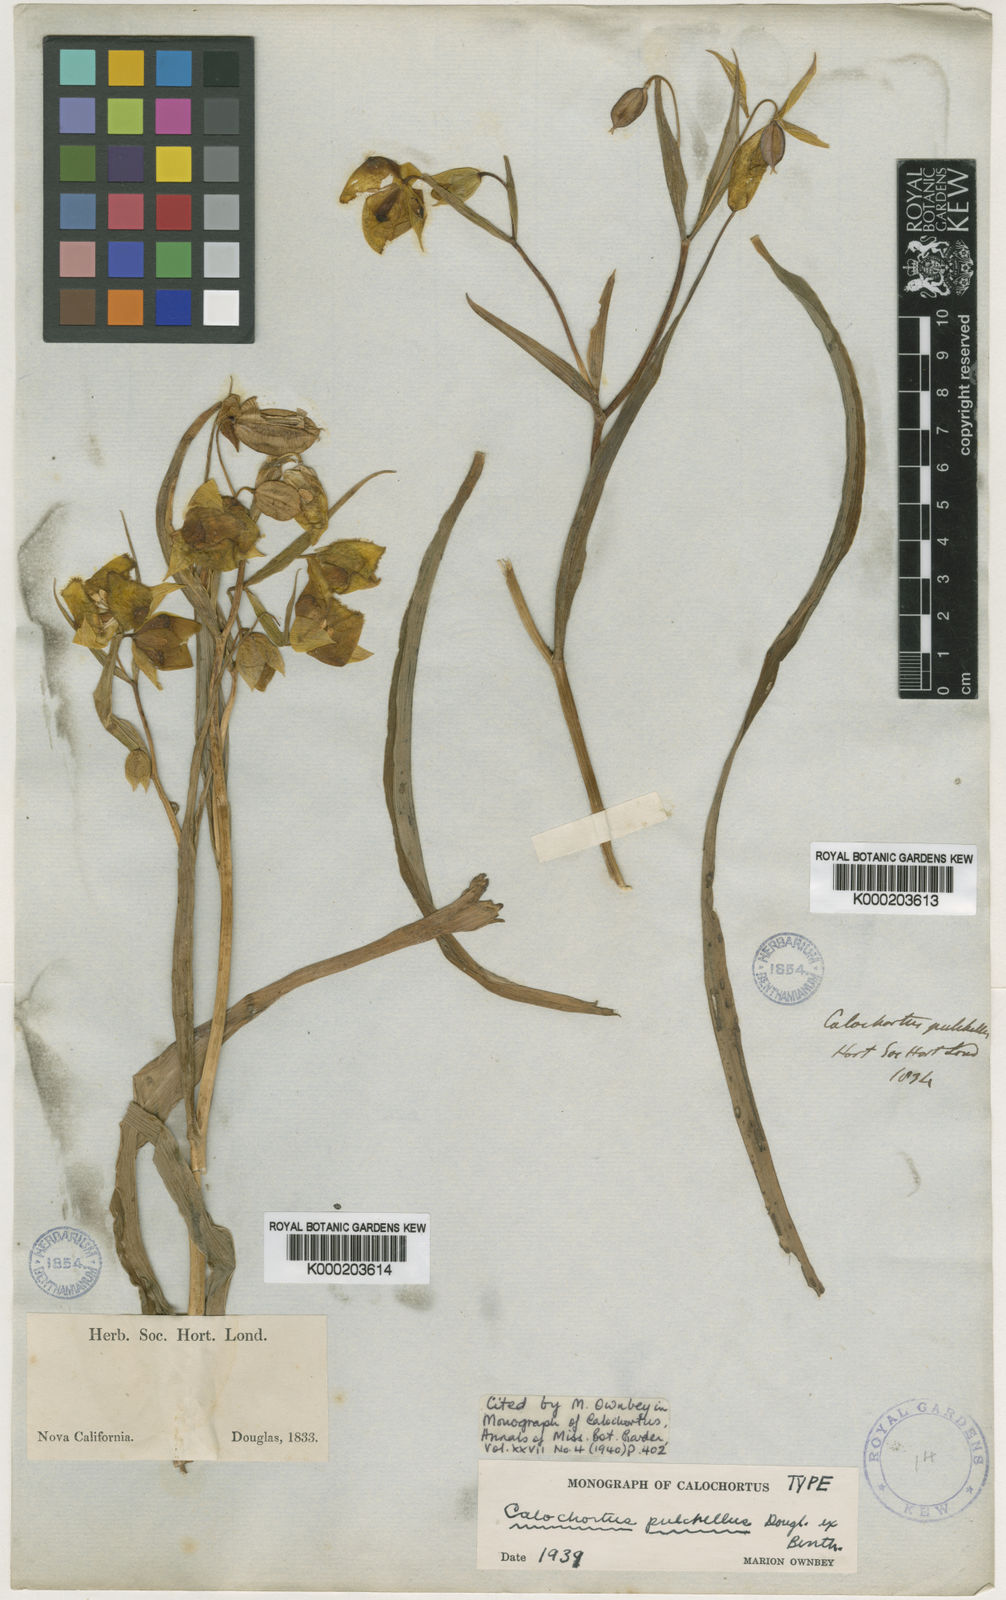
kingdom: Plantae
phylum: Tracheophyta
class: Liliopsida
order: Liliales
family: Liliaceae
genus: Calochortus
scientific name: Calochortus pulchellus
